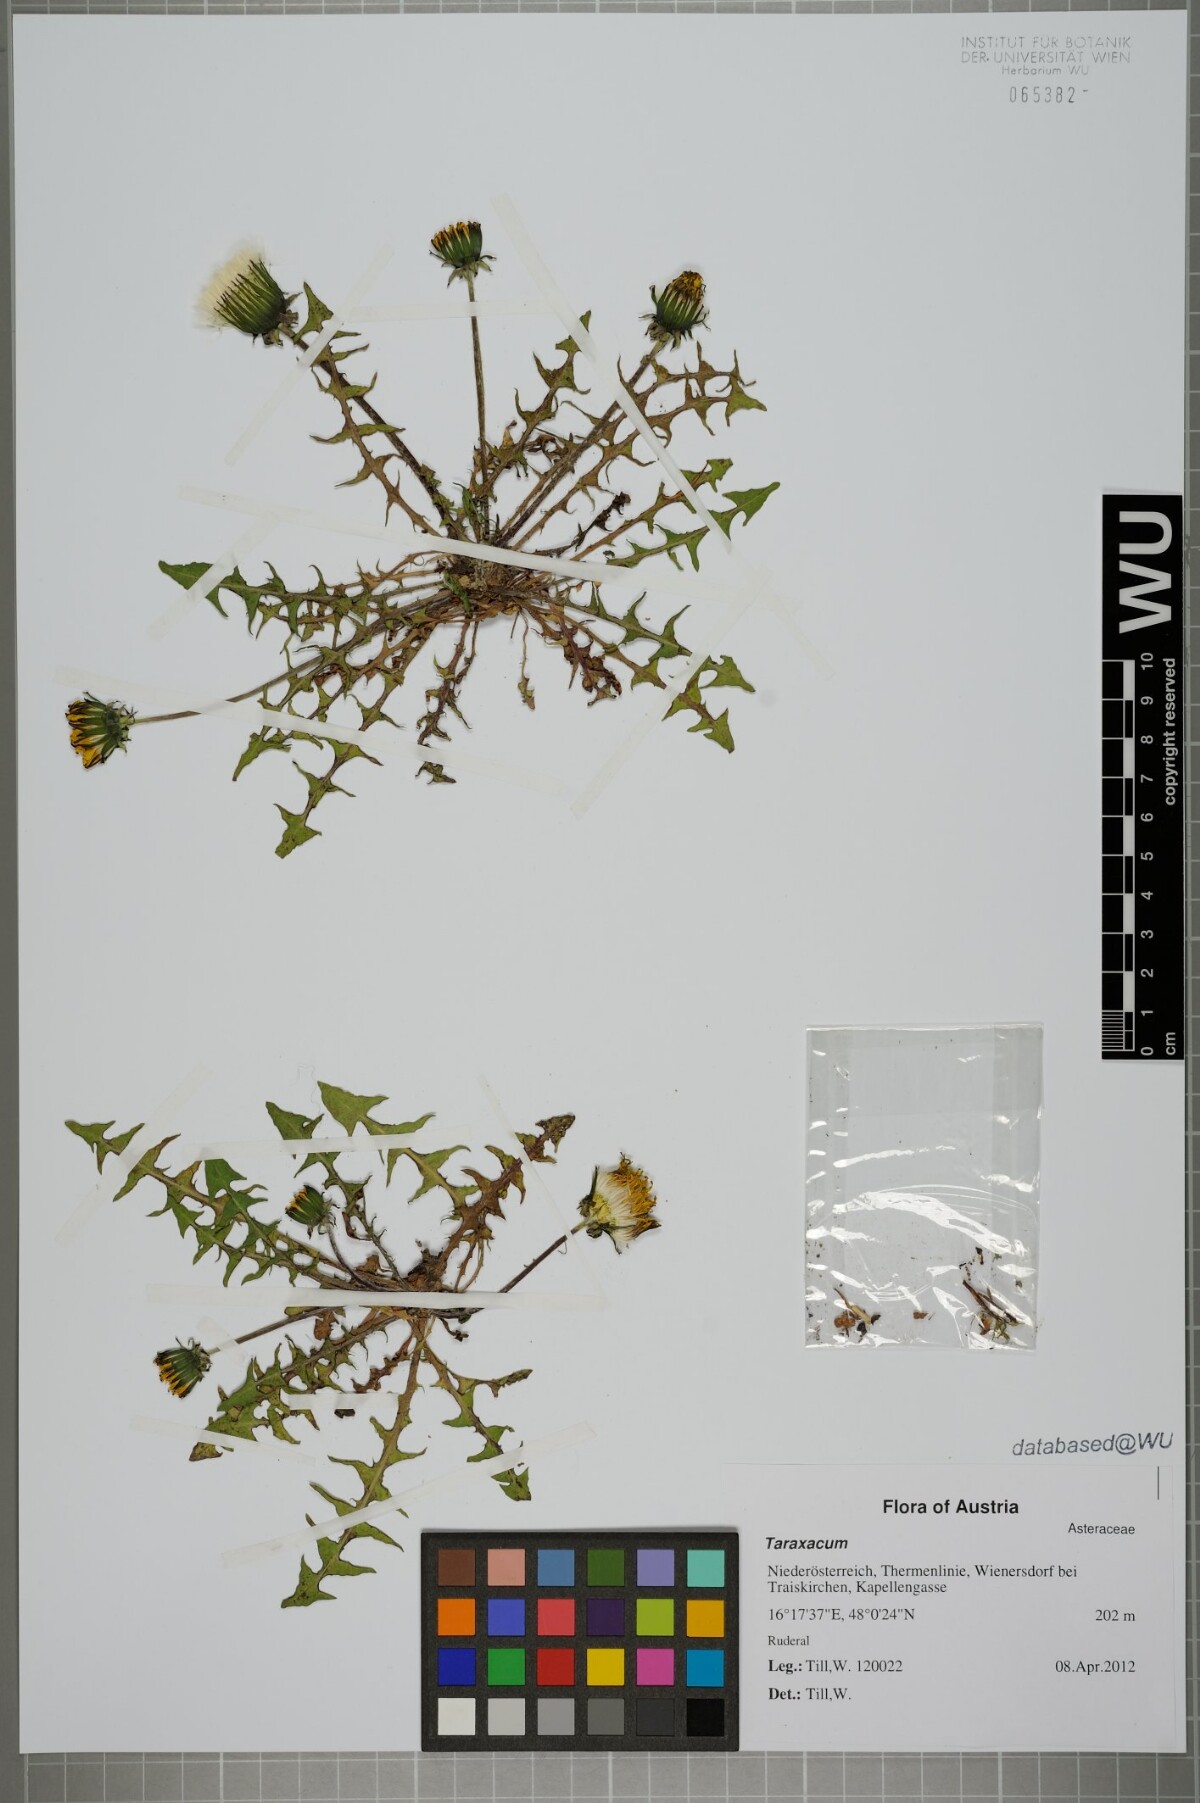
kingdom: Plantae
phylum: Tracheophyta
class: Magnoliopsida
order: Asterales
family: Asteraceae
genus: Taraxacum
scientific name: Taraxacum
